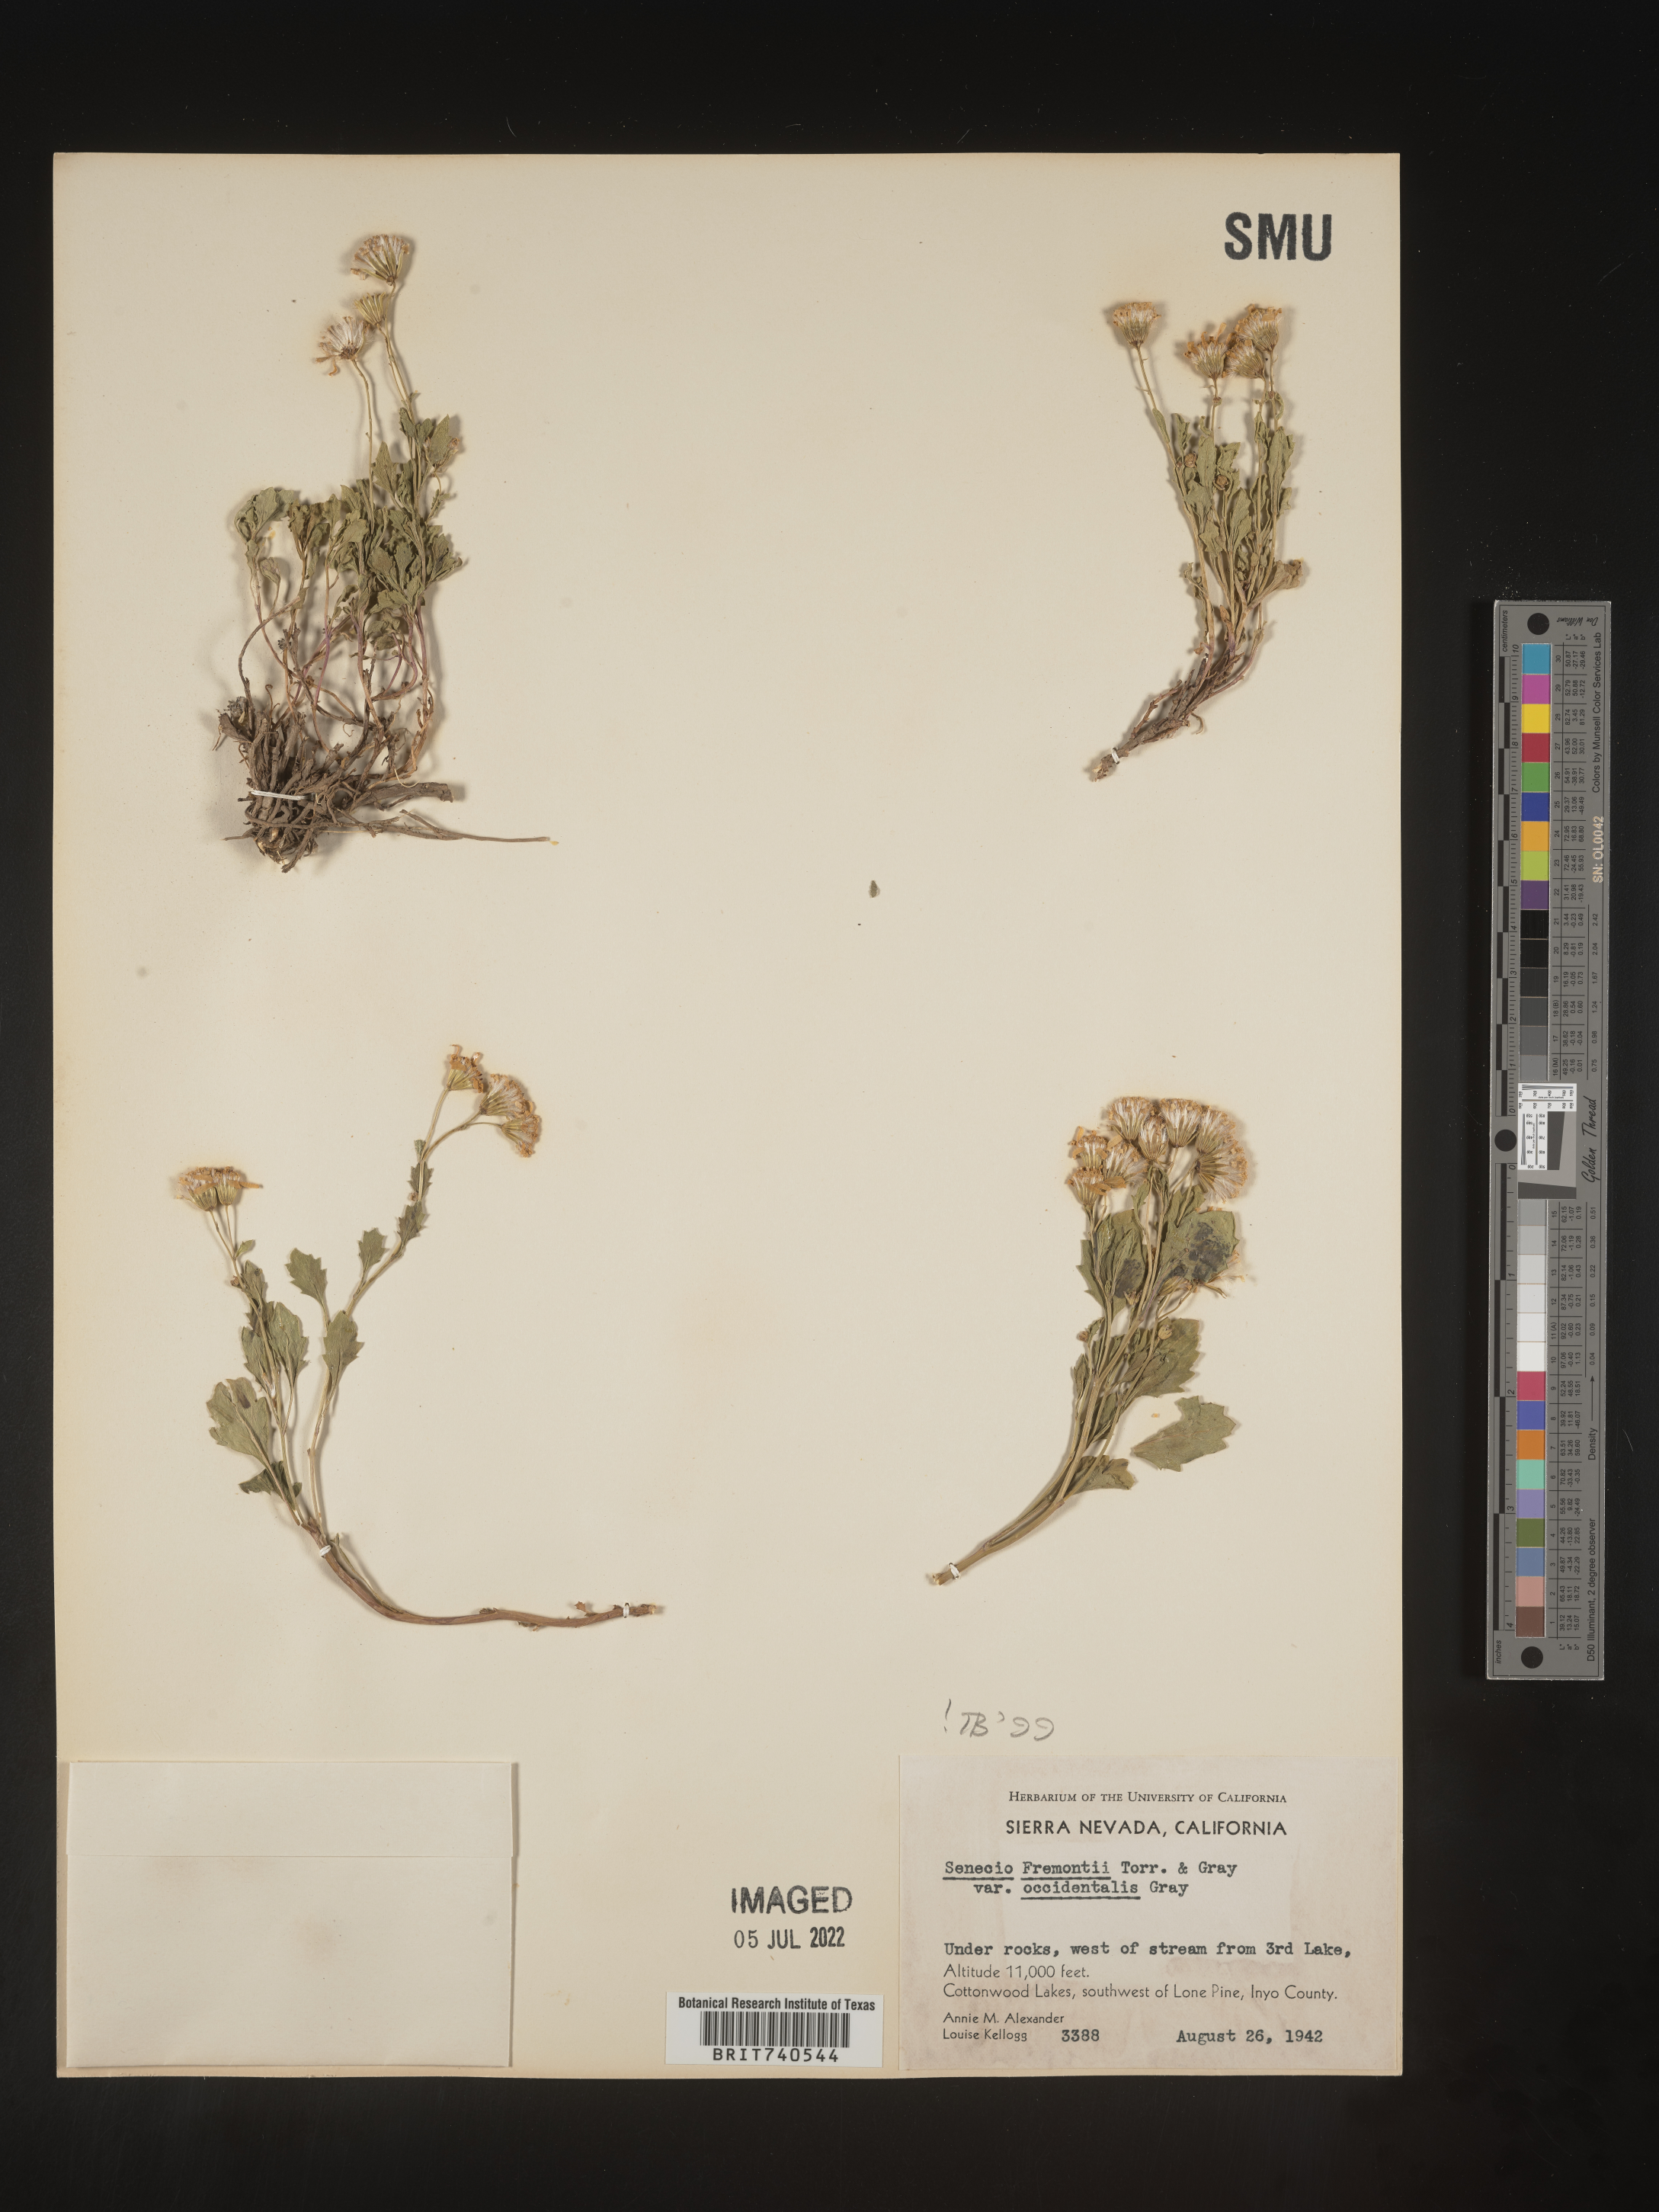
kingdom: Plantae
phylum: Tracheophyta
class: Magnoliopsida
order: Asterales
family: Asteraceae
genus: Senecio
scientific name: Senecio fremontii
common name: Fremont's groundsel
